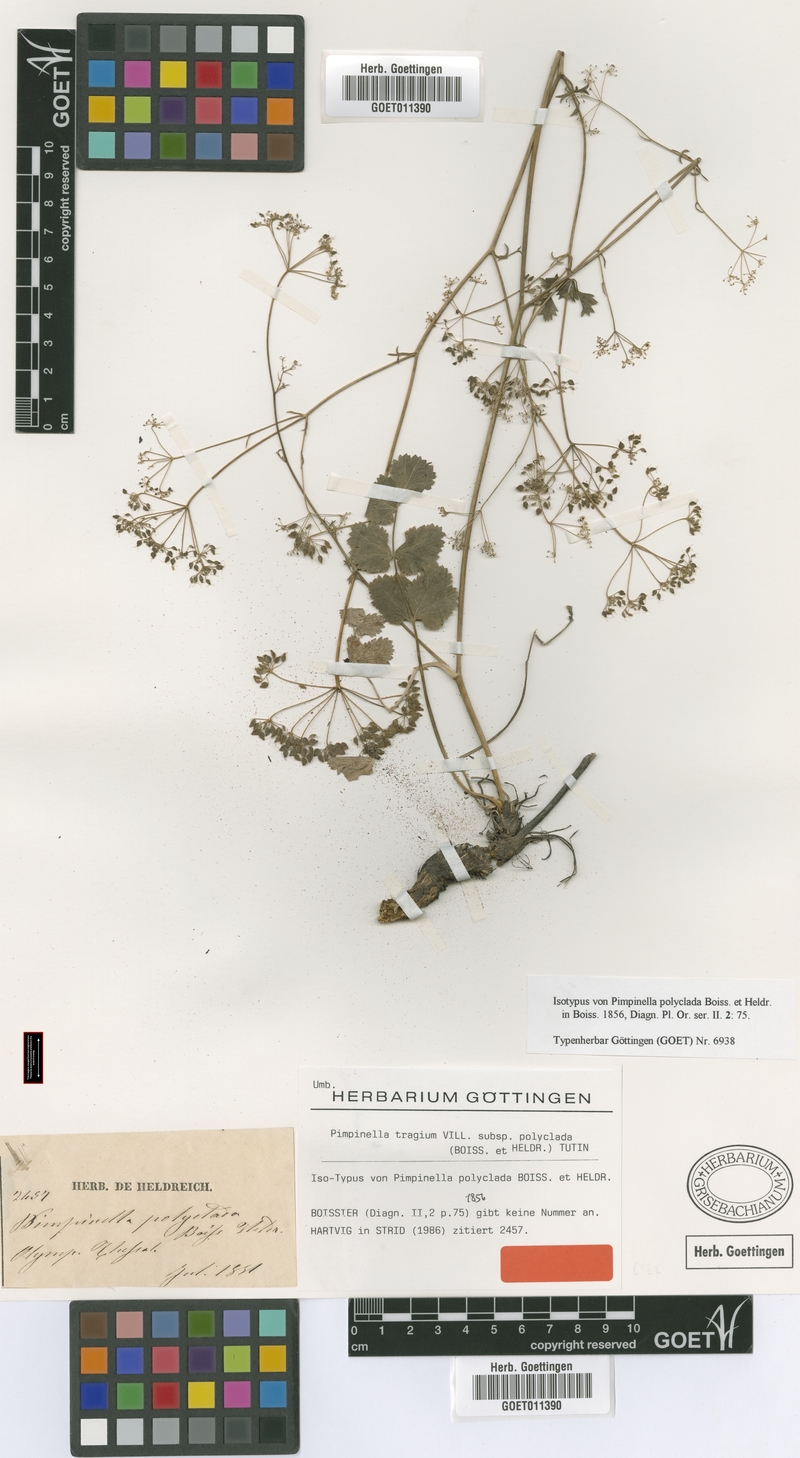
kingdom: Plantae
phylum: Tracheophyta
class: Magnoliopsida
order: Apiales
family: Apiaceae
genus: Pimpinella
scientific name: Pimpinella tragium
